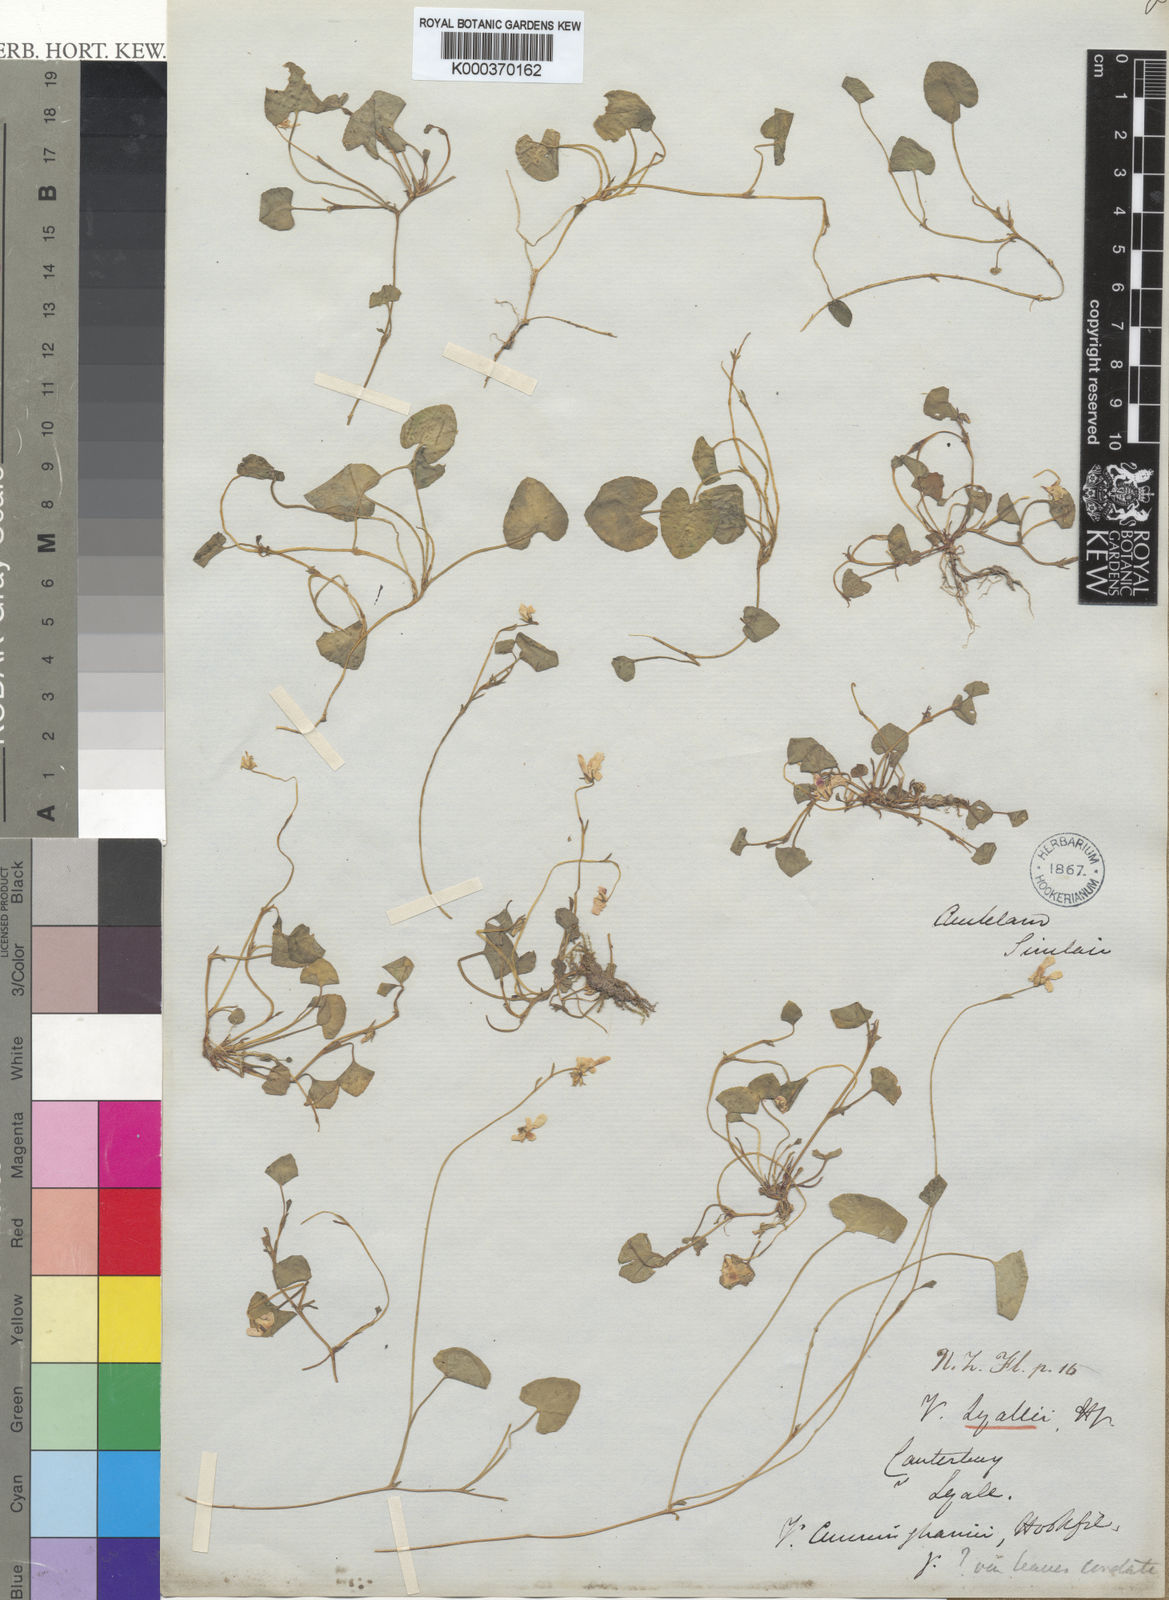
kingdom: Plantae
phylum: Tracheophyta
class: Magnoliopsida
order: Malpighiales
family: Violaceae
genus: Viola
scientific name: Viola lyallii
